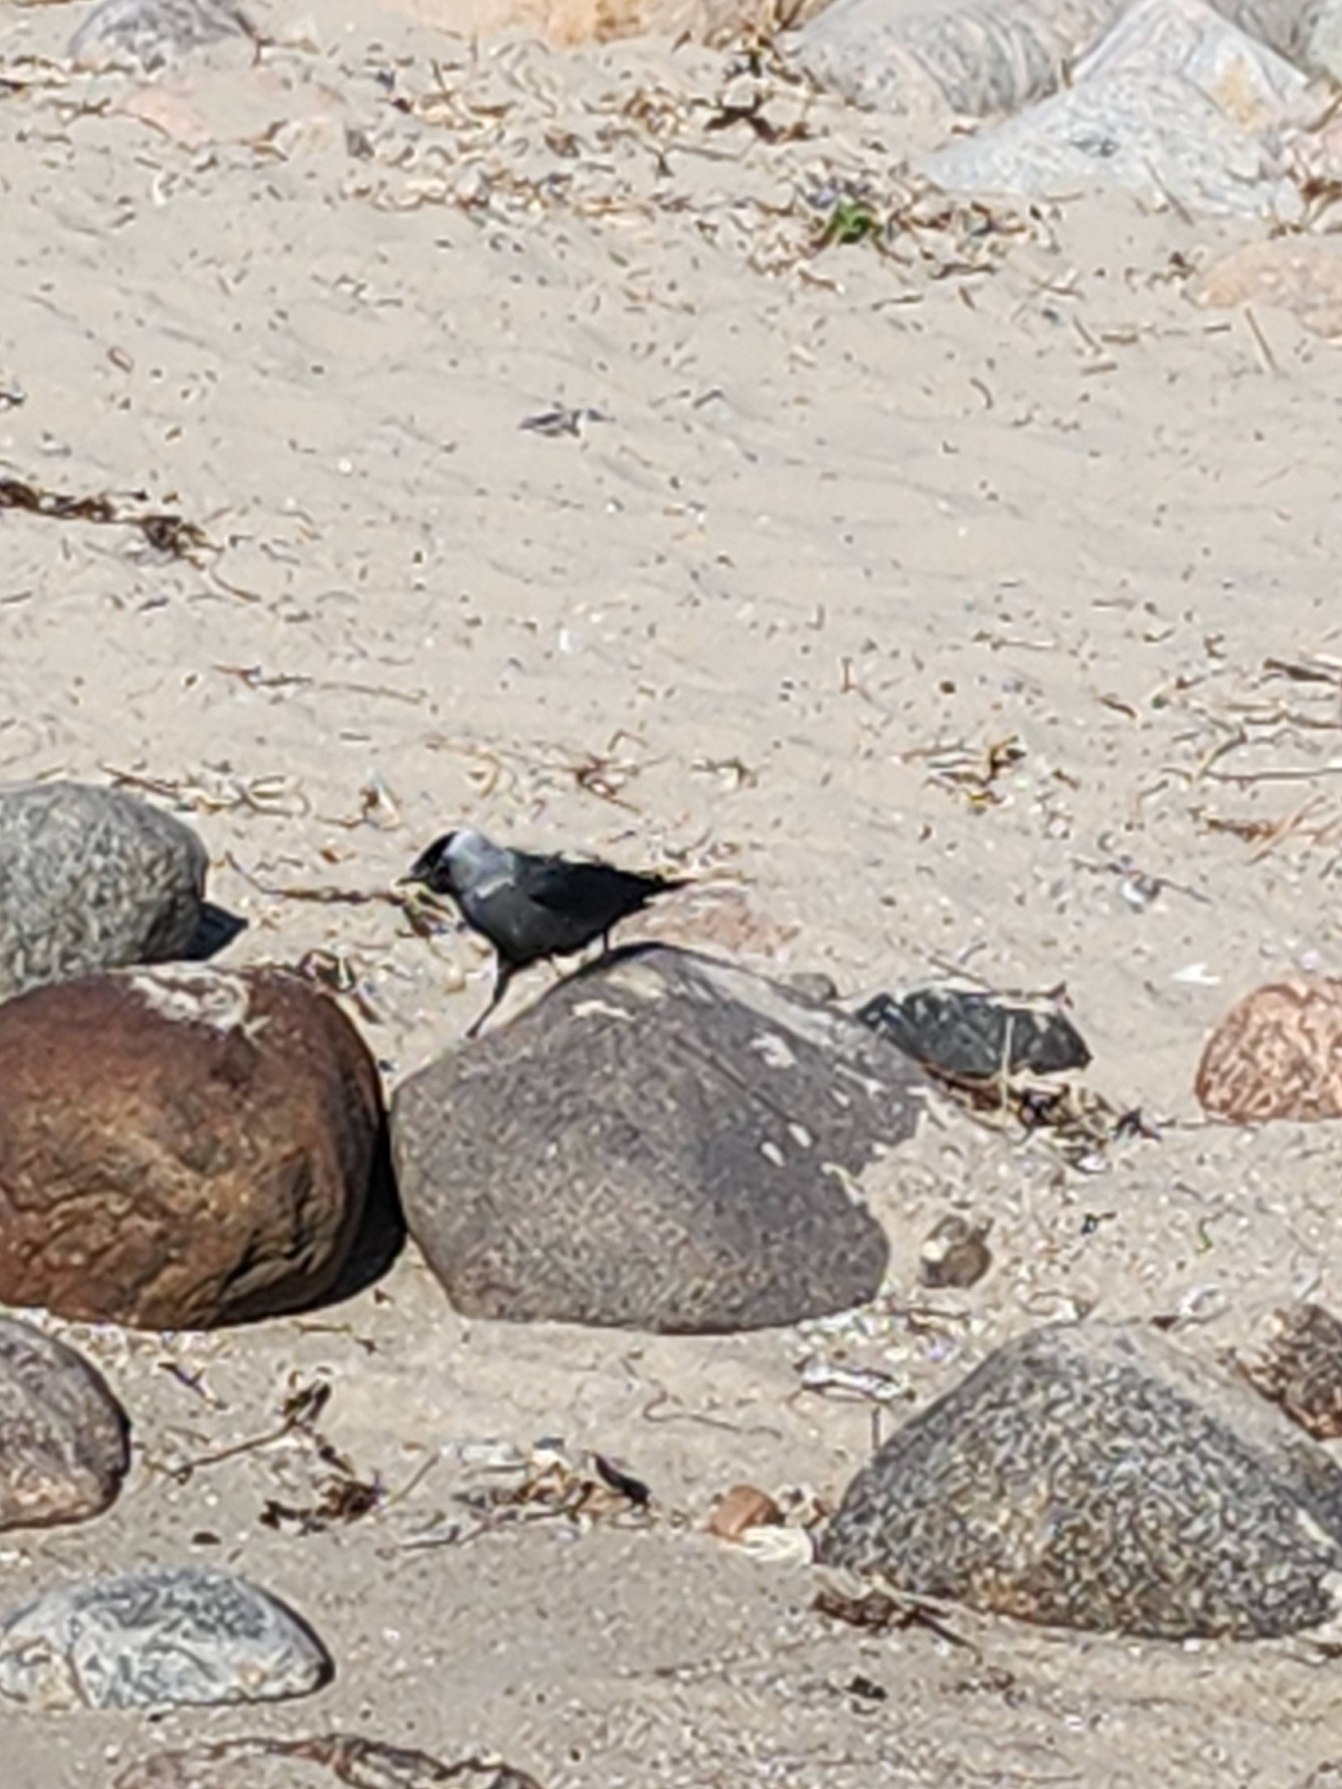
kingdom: Animalia
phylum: Chordata
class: Aves
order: Passeriformes
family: Corvidae
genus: Coloeus
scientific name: Coloeus monedula
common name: Allike
